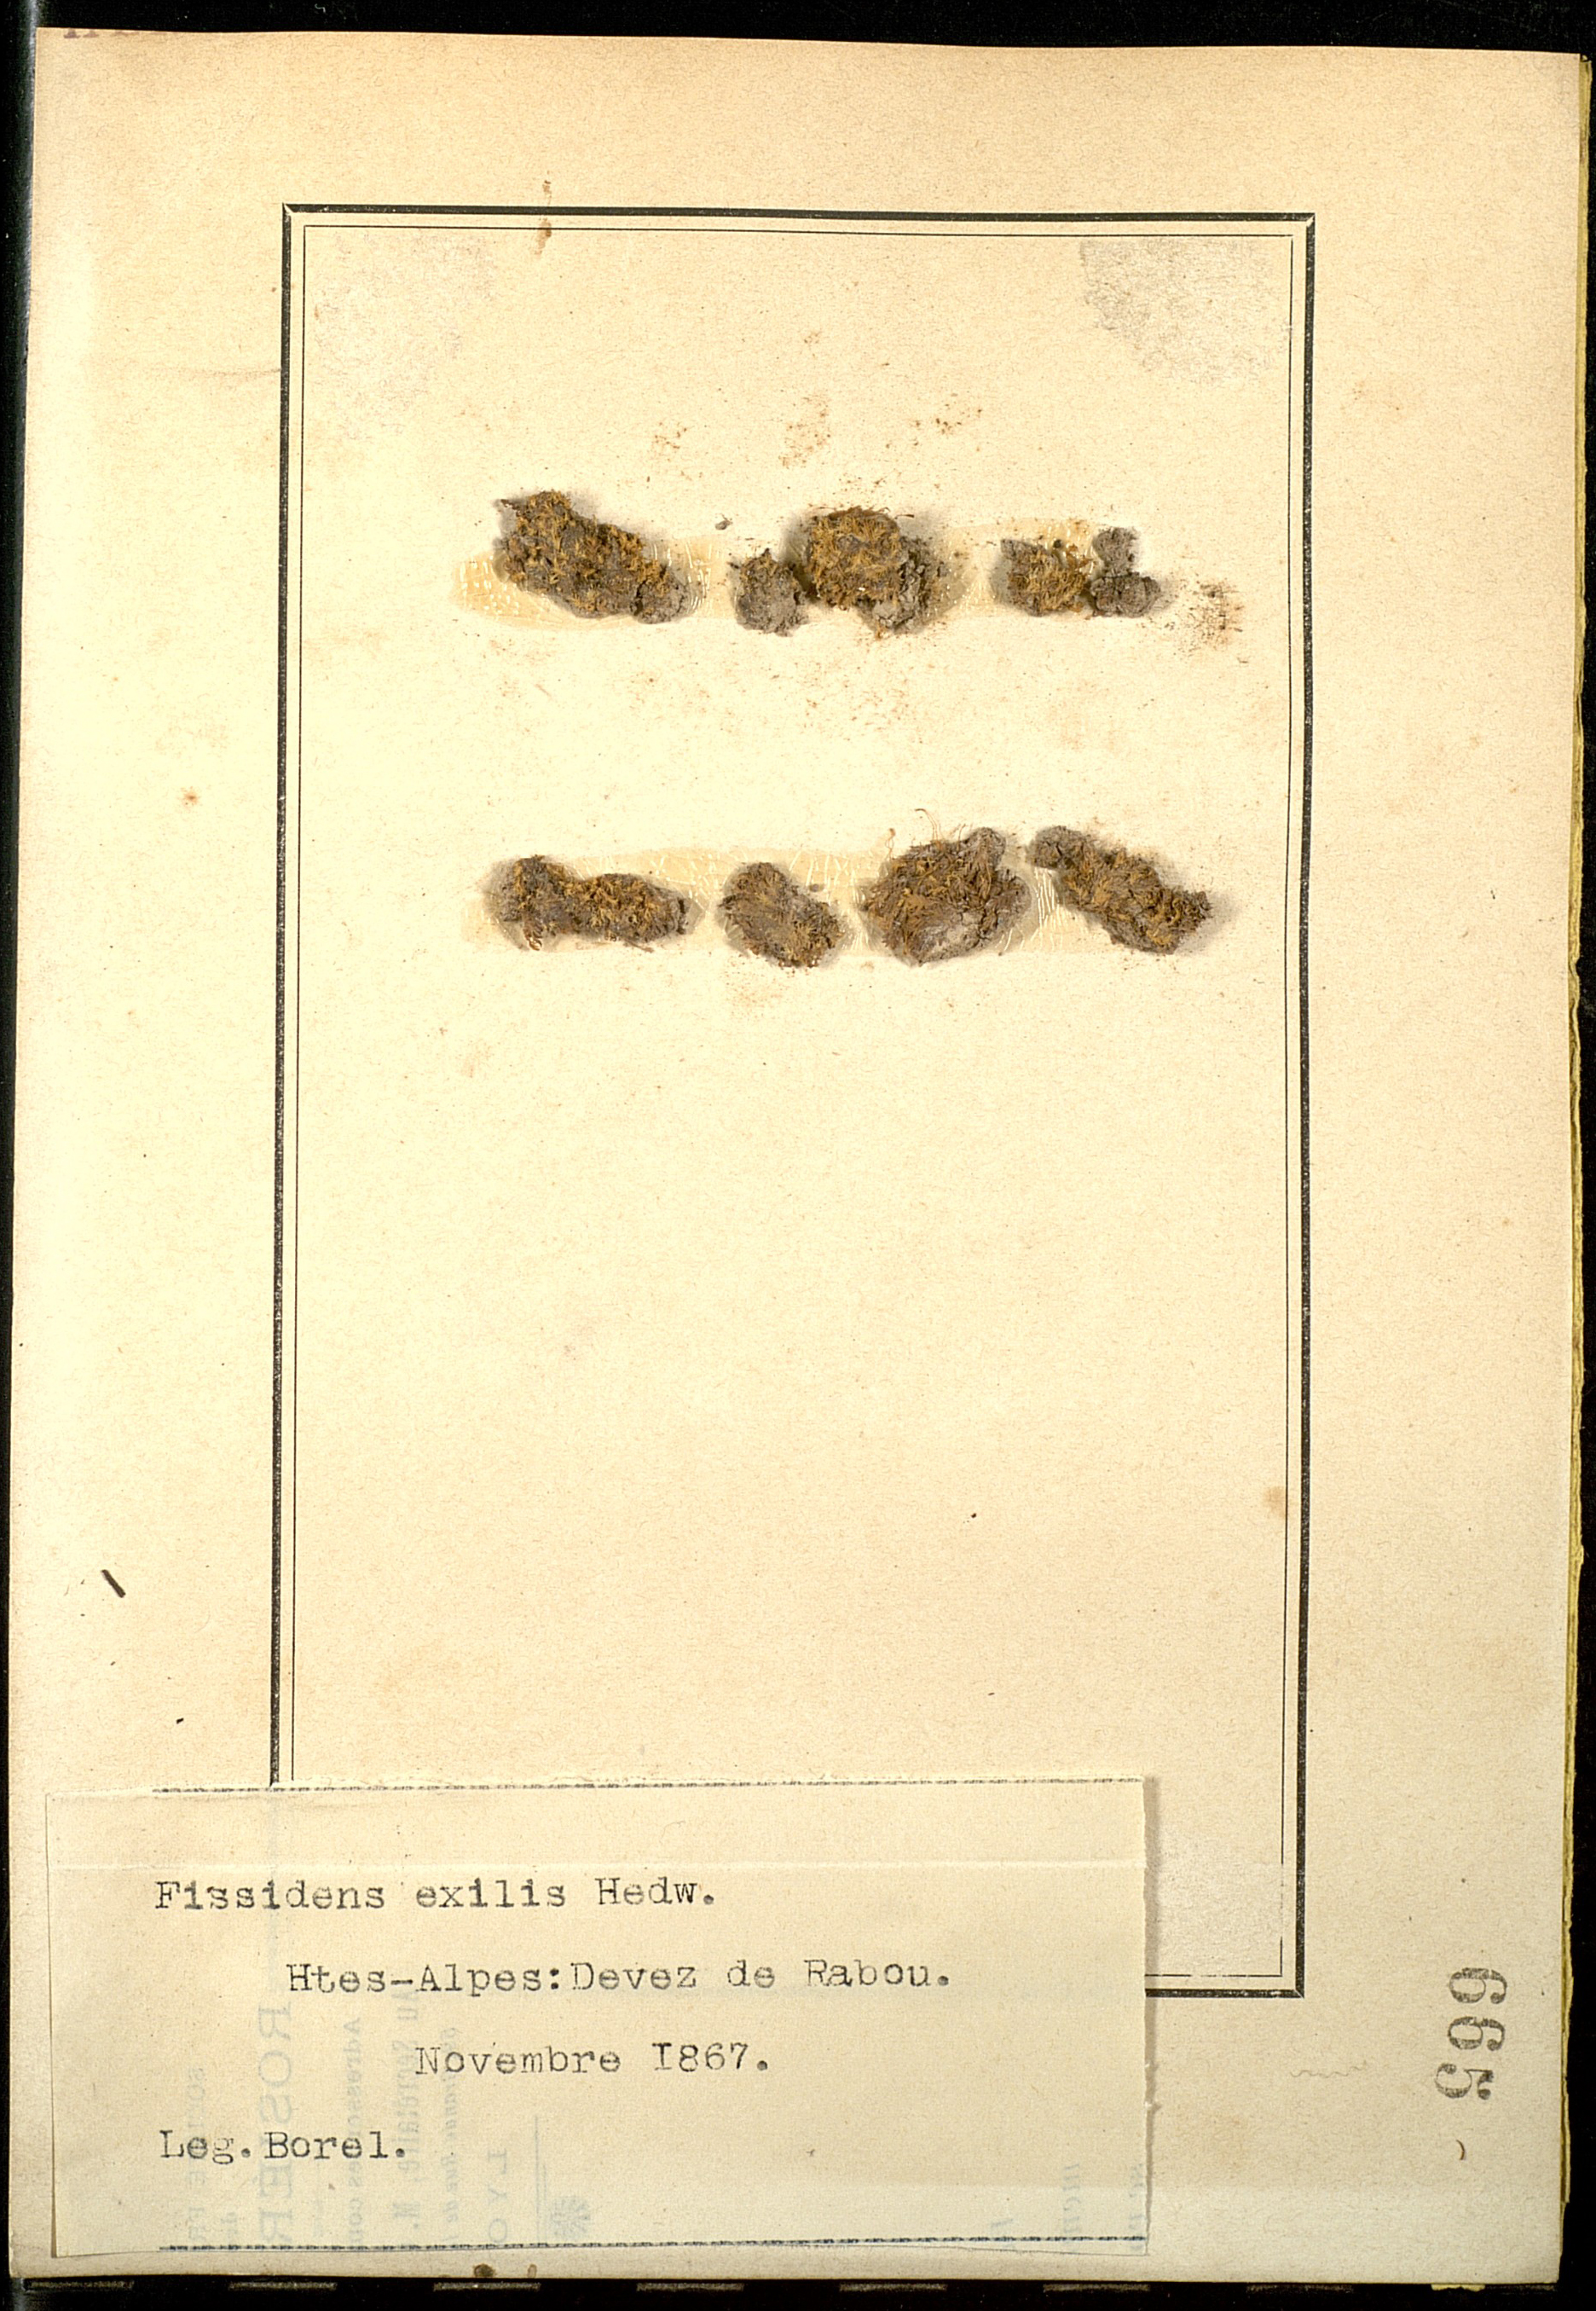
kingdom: Plantae
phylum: Bryophyta
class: Bryopsida
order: Dicranales
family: Fissidentaceae
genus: Fissidens
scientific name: Fissidens exilis
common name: Pygmy pocket moss
